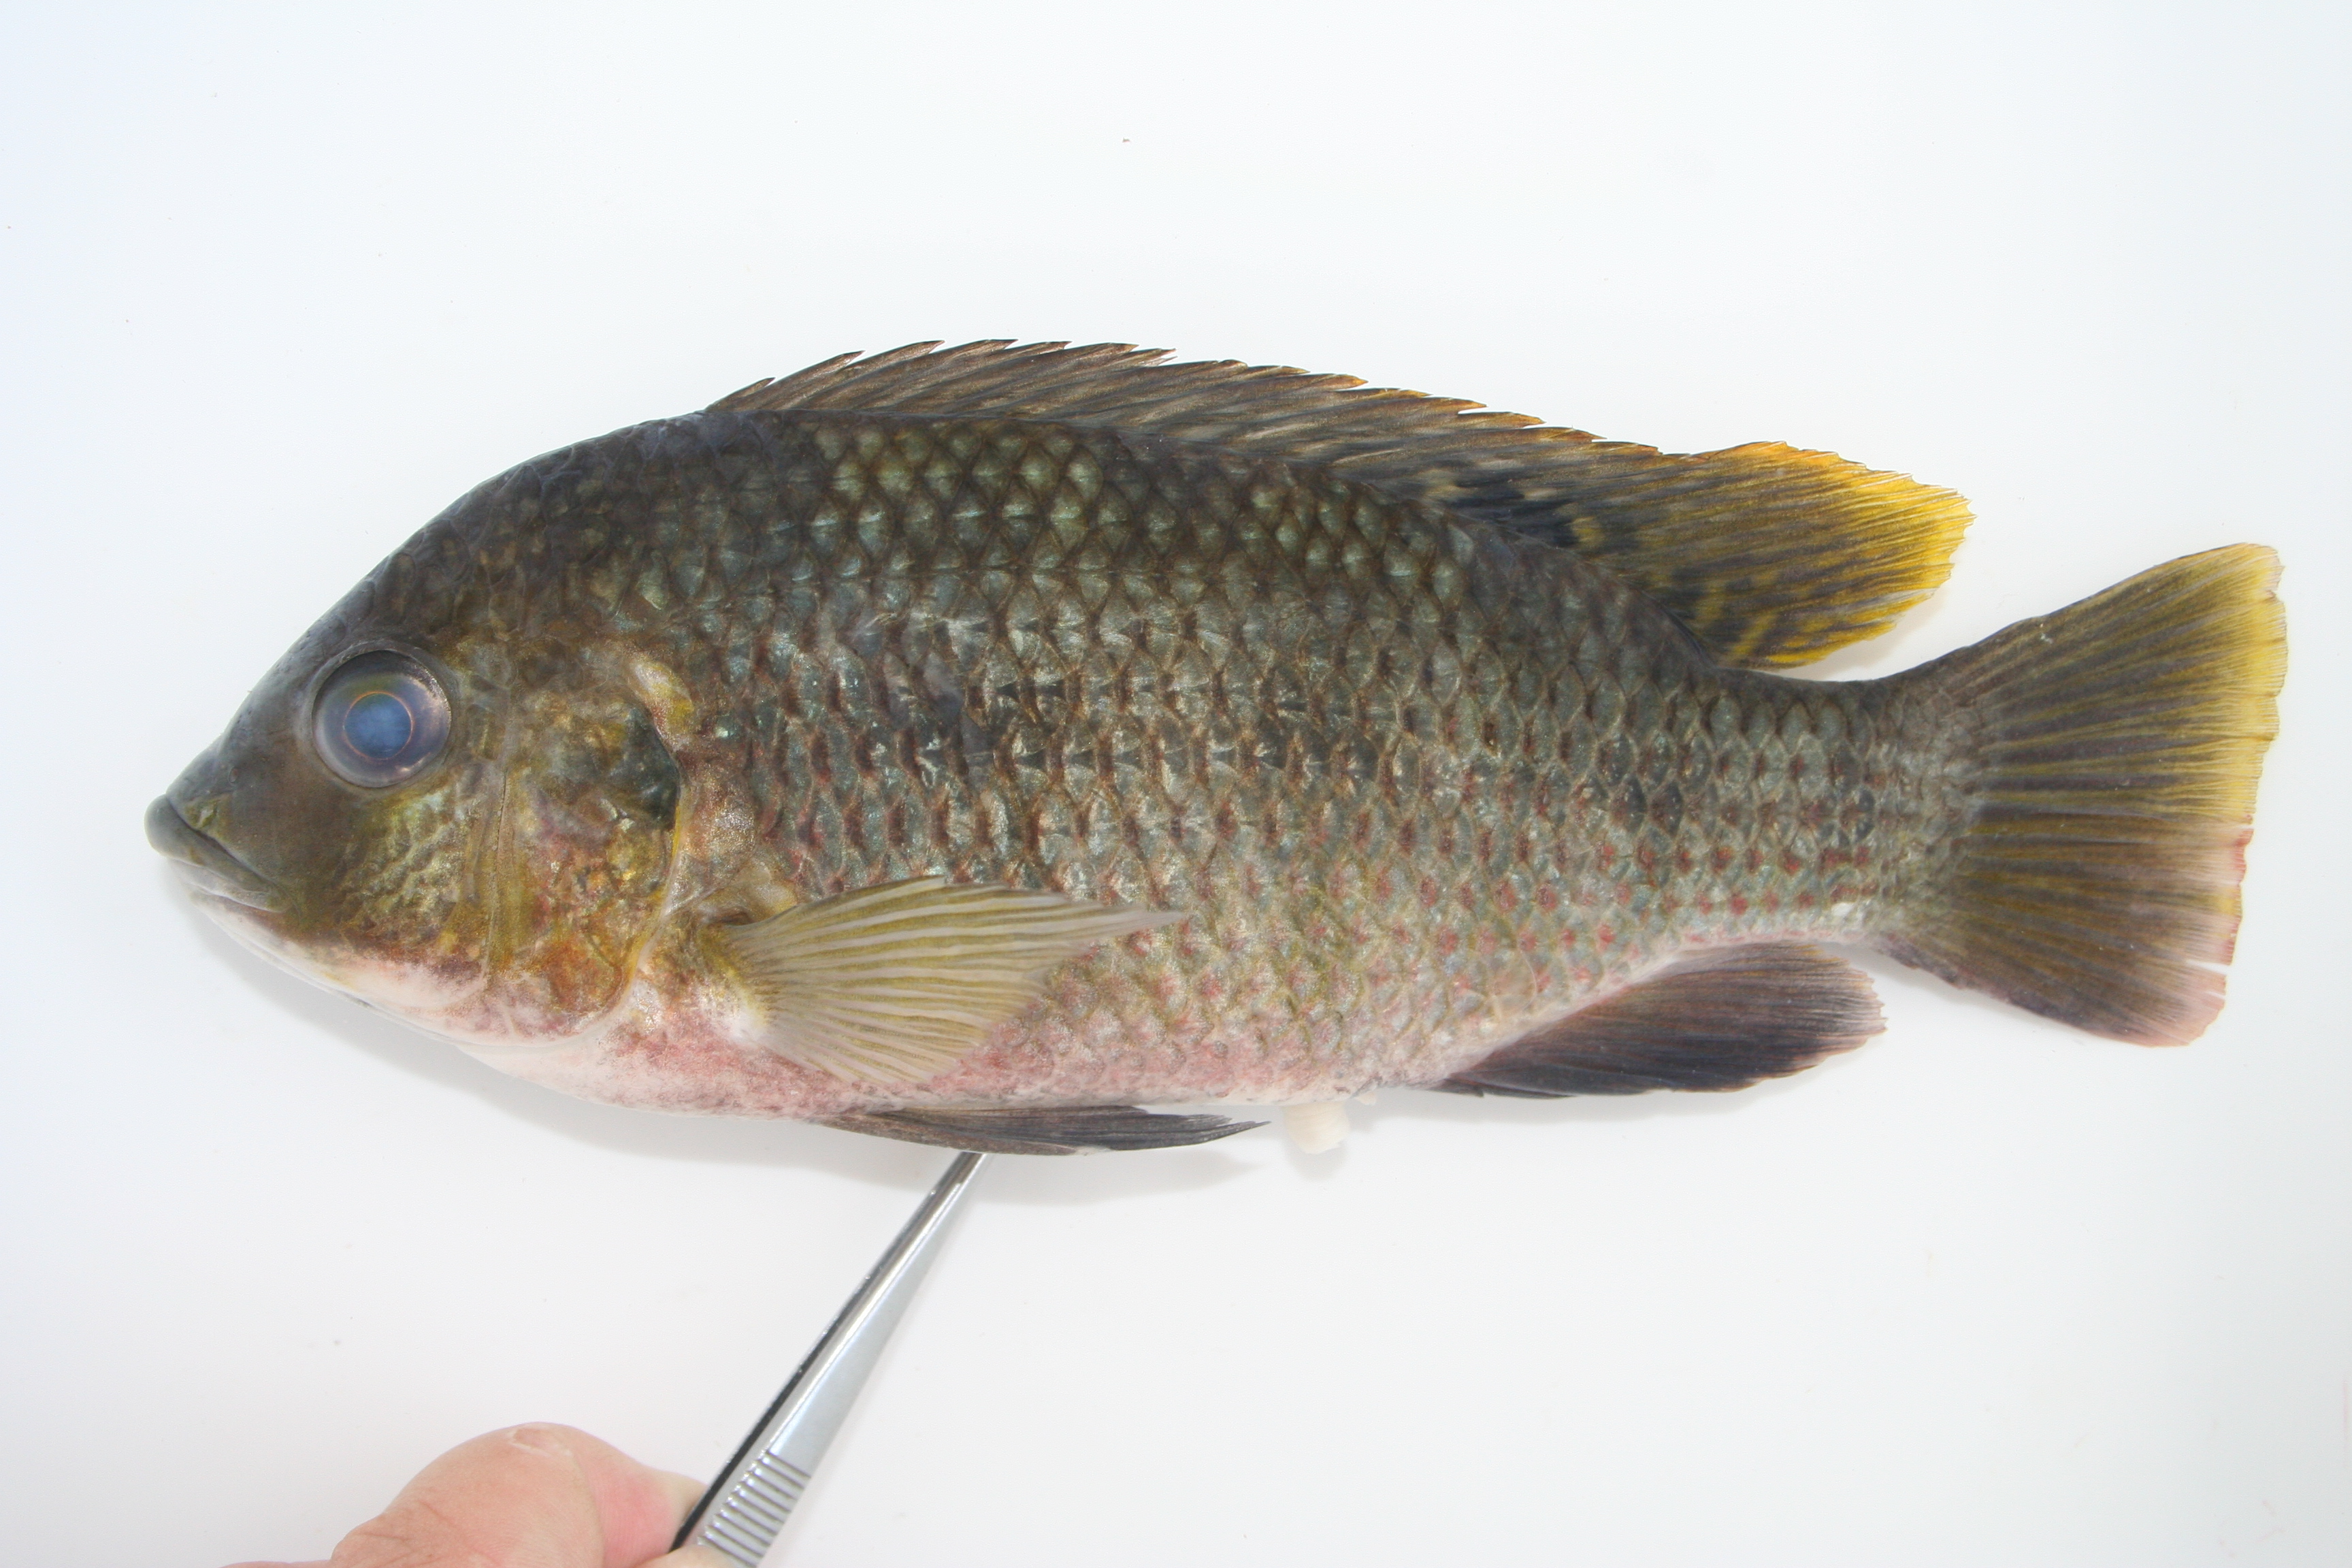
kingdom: Animalia
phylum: Chordata
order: Perciformes
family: Cichlidae
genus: Coptodon
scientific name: Coptodon rendalli
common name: Redbreast tilapia
